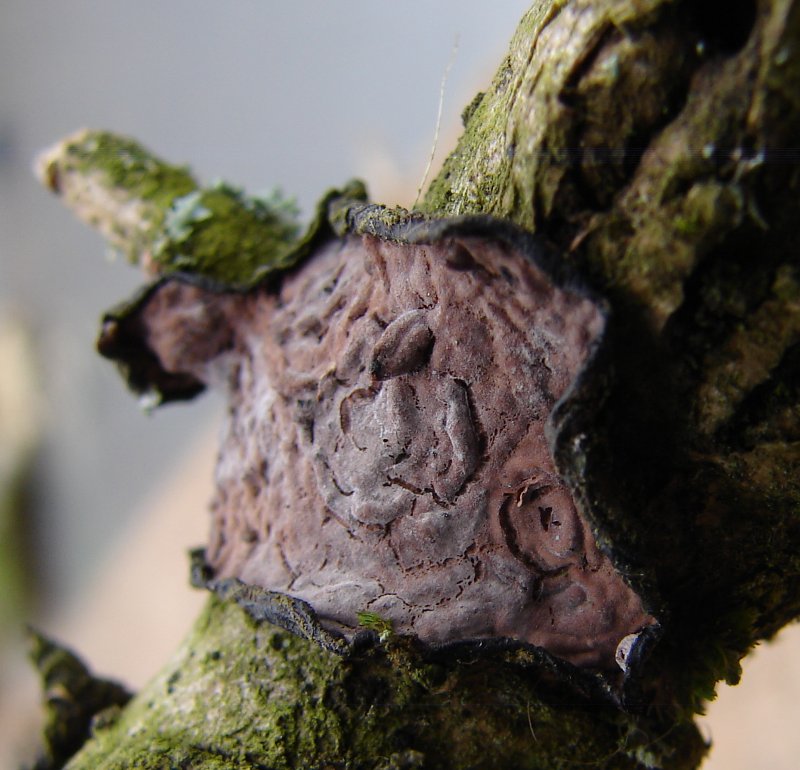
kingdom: Fungi
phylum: Basidiomycota
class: Agaricomycetes
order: Russulales
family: Peniophoraceae
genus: Peniophora
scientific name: Peniophora quercina
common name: ege-voksskind
